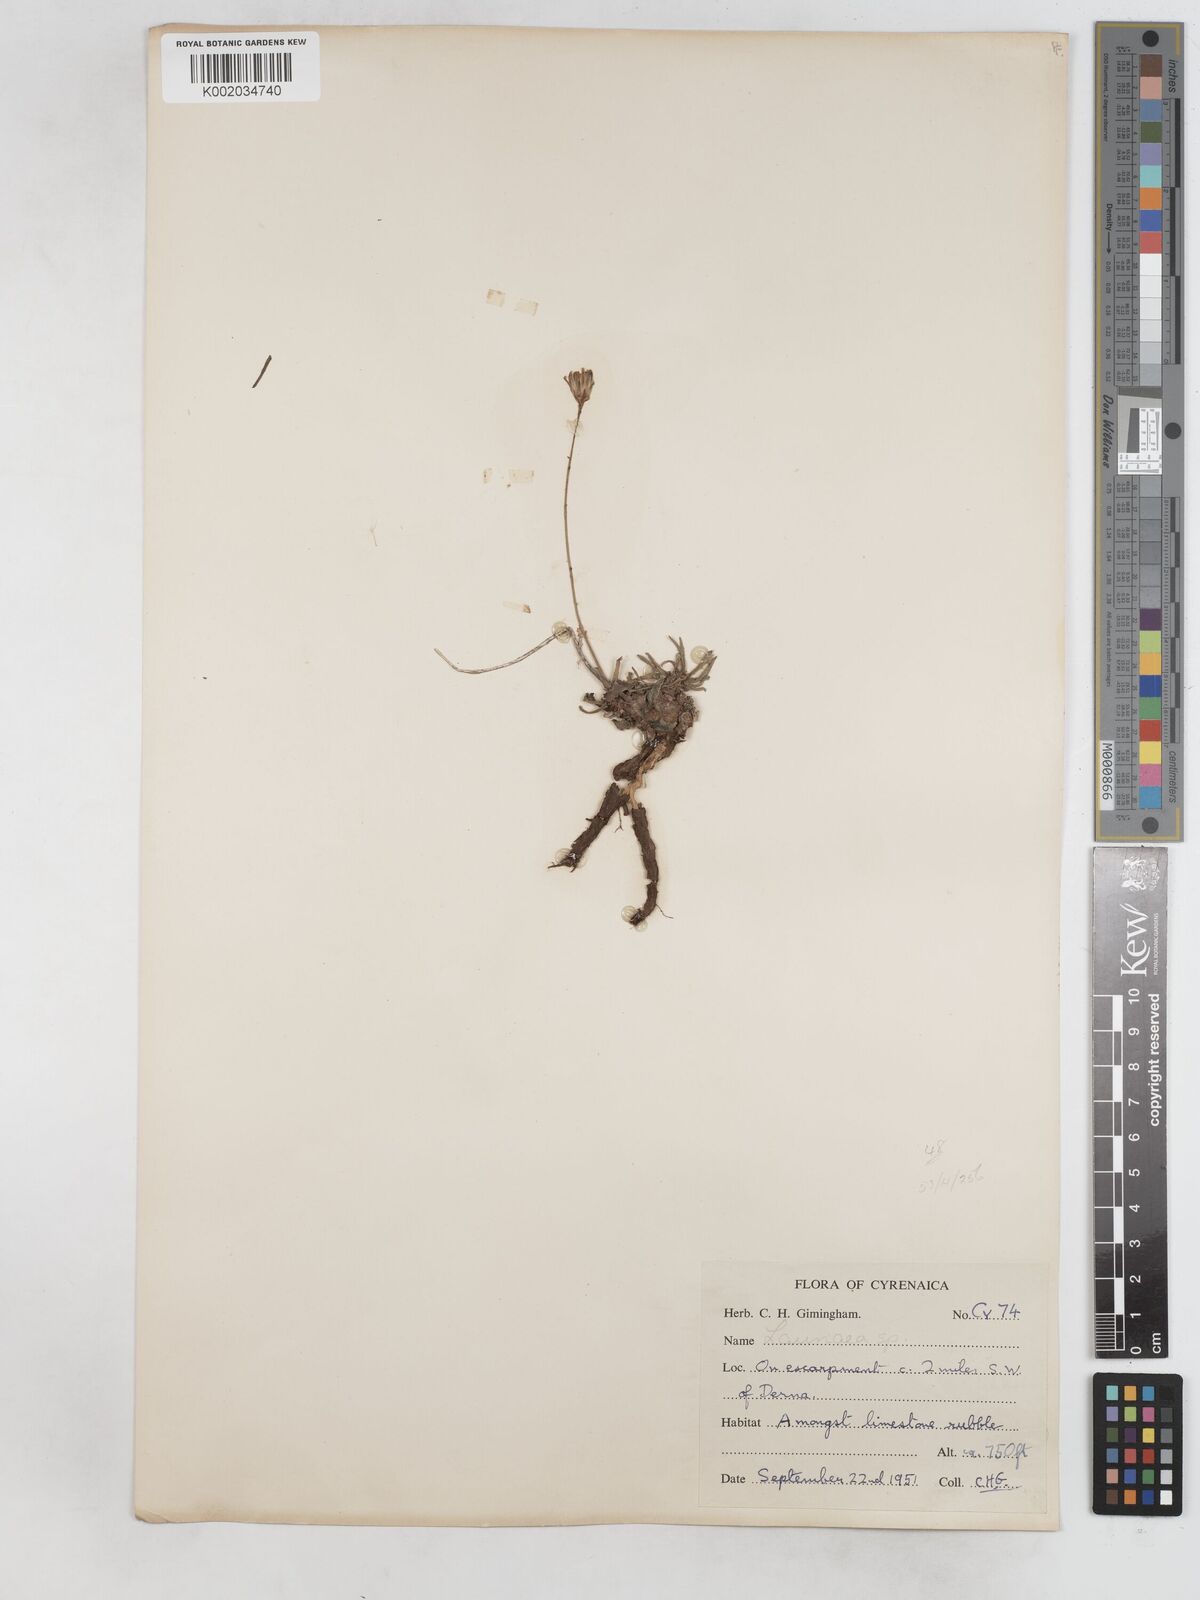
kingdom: Plantae
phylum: Tracheophyta
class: Magnoliopsida
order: Asterales
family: Asteraceae
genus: Launaea
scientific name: Launaea
